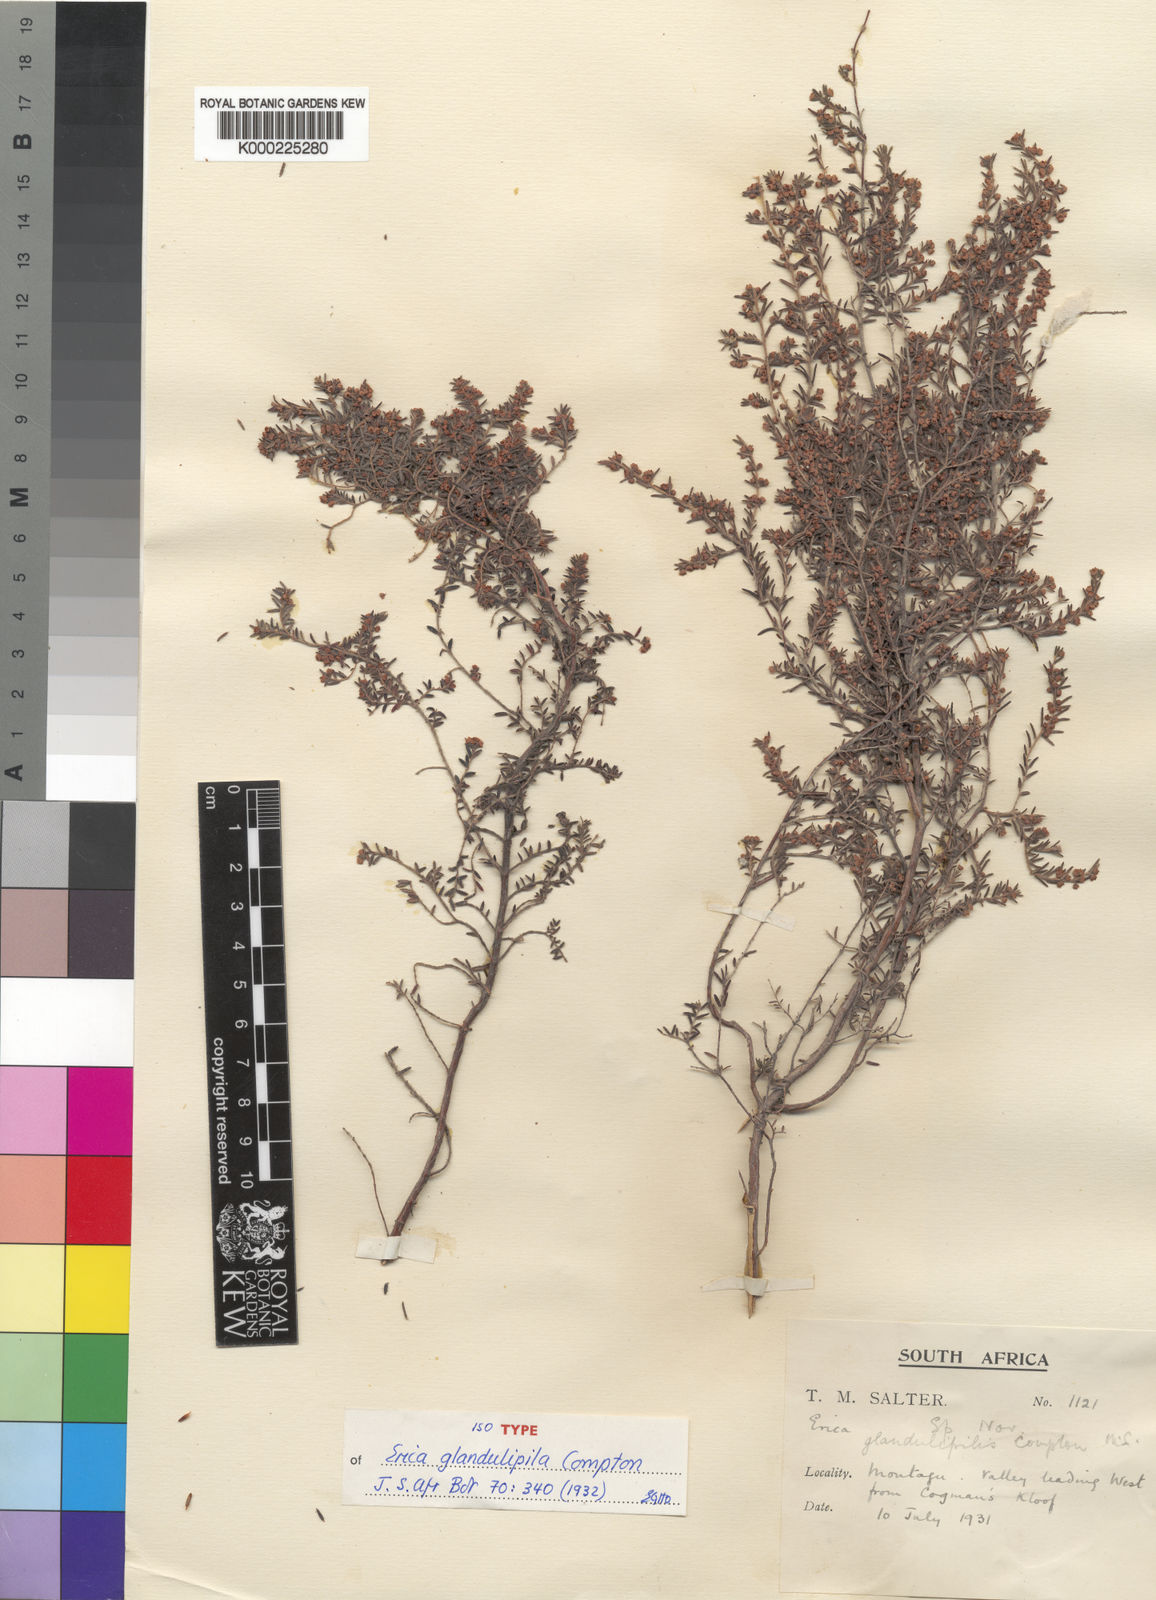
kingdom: Plantae
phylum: Tracheophyta
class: Magnoliopsida
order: Ericales
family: Ericaceae
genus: Erica
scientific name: Erica glandulipila
